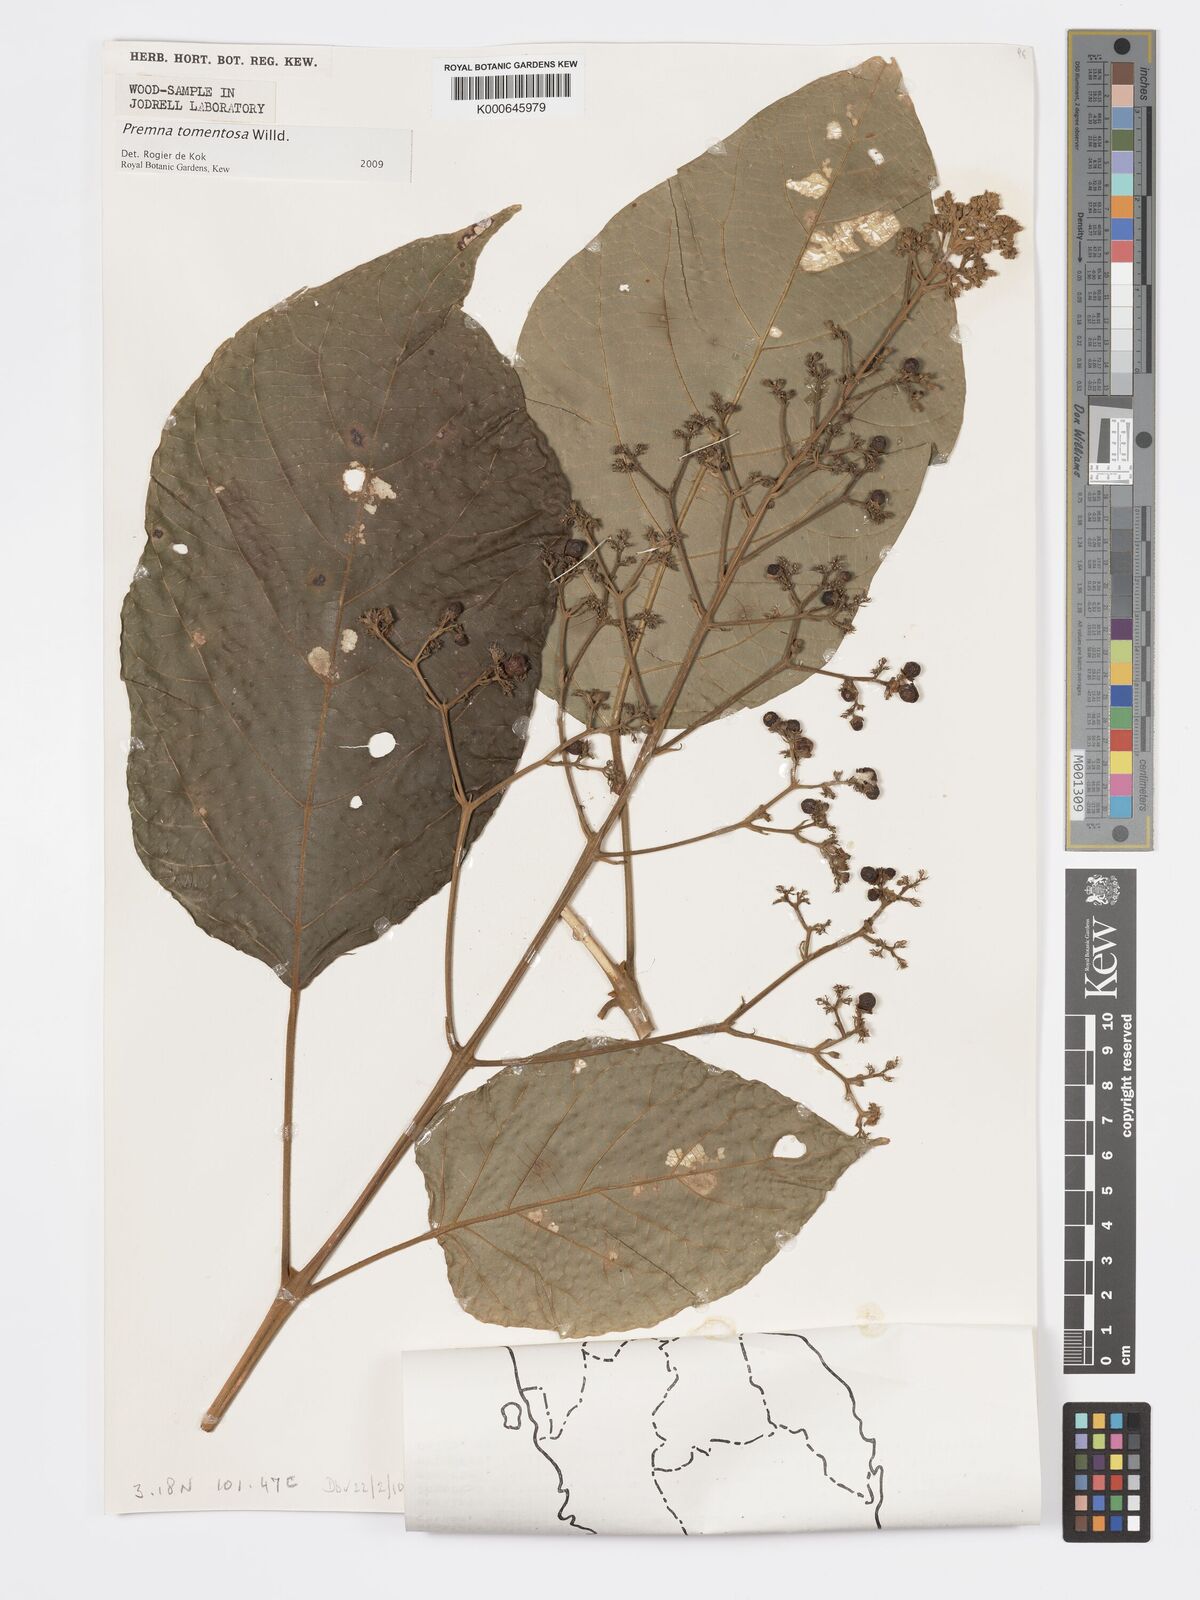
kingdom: Plantae
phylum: Tracheophyta
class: Magnoliopsida
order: Lamiales
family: Lamiaceae
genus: Premna
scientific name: Premna tomentosa
